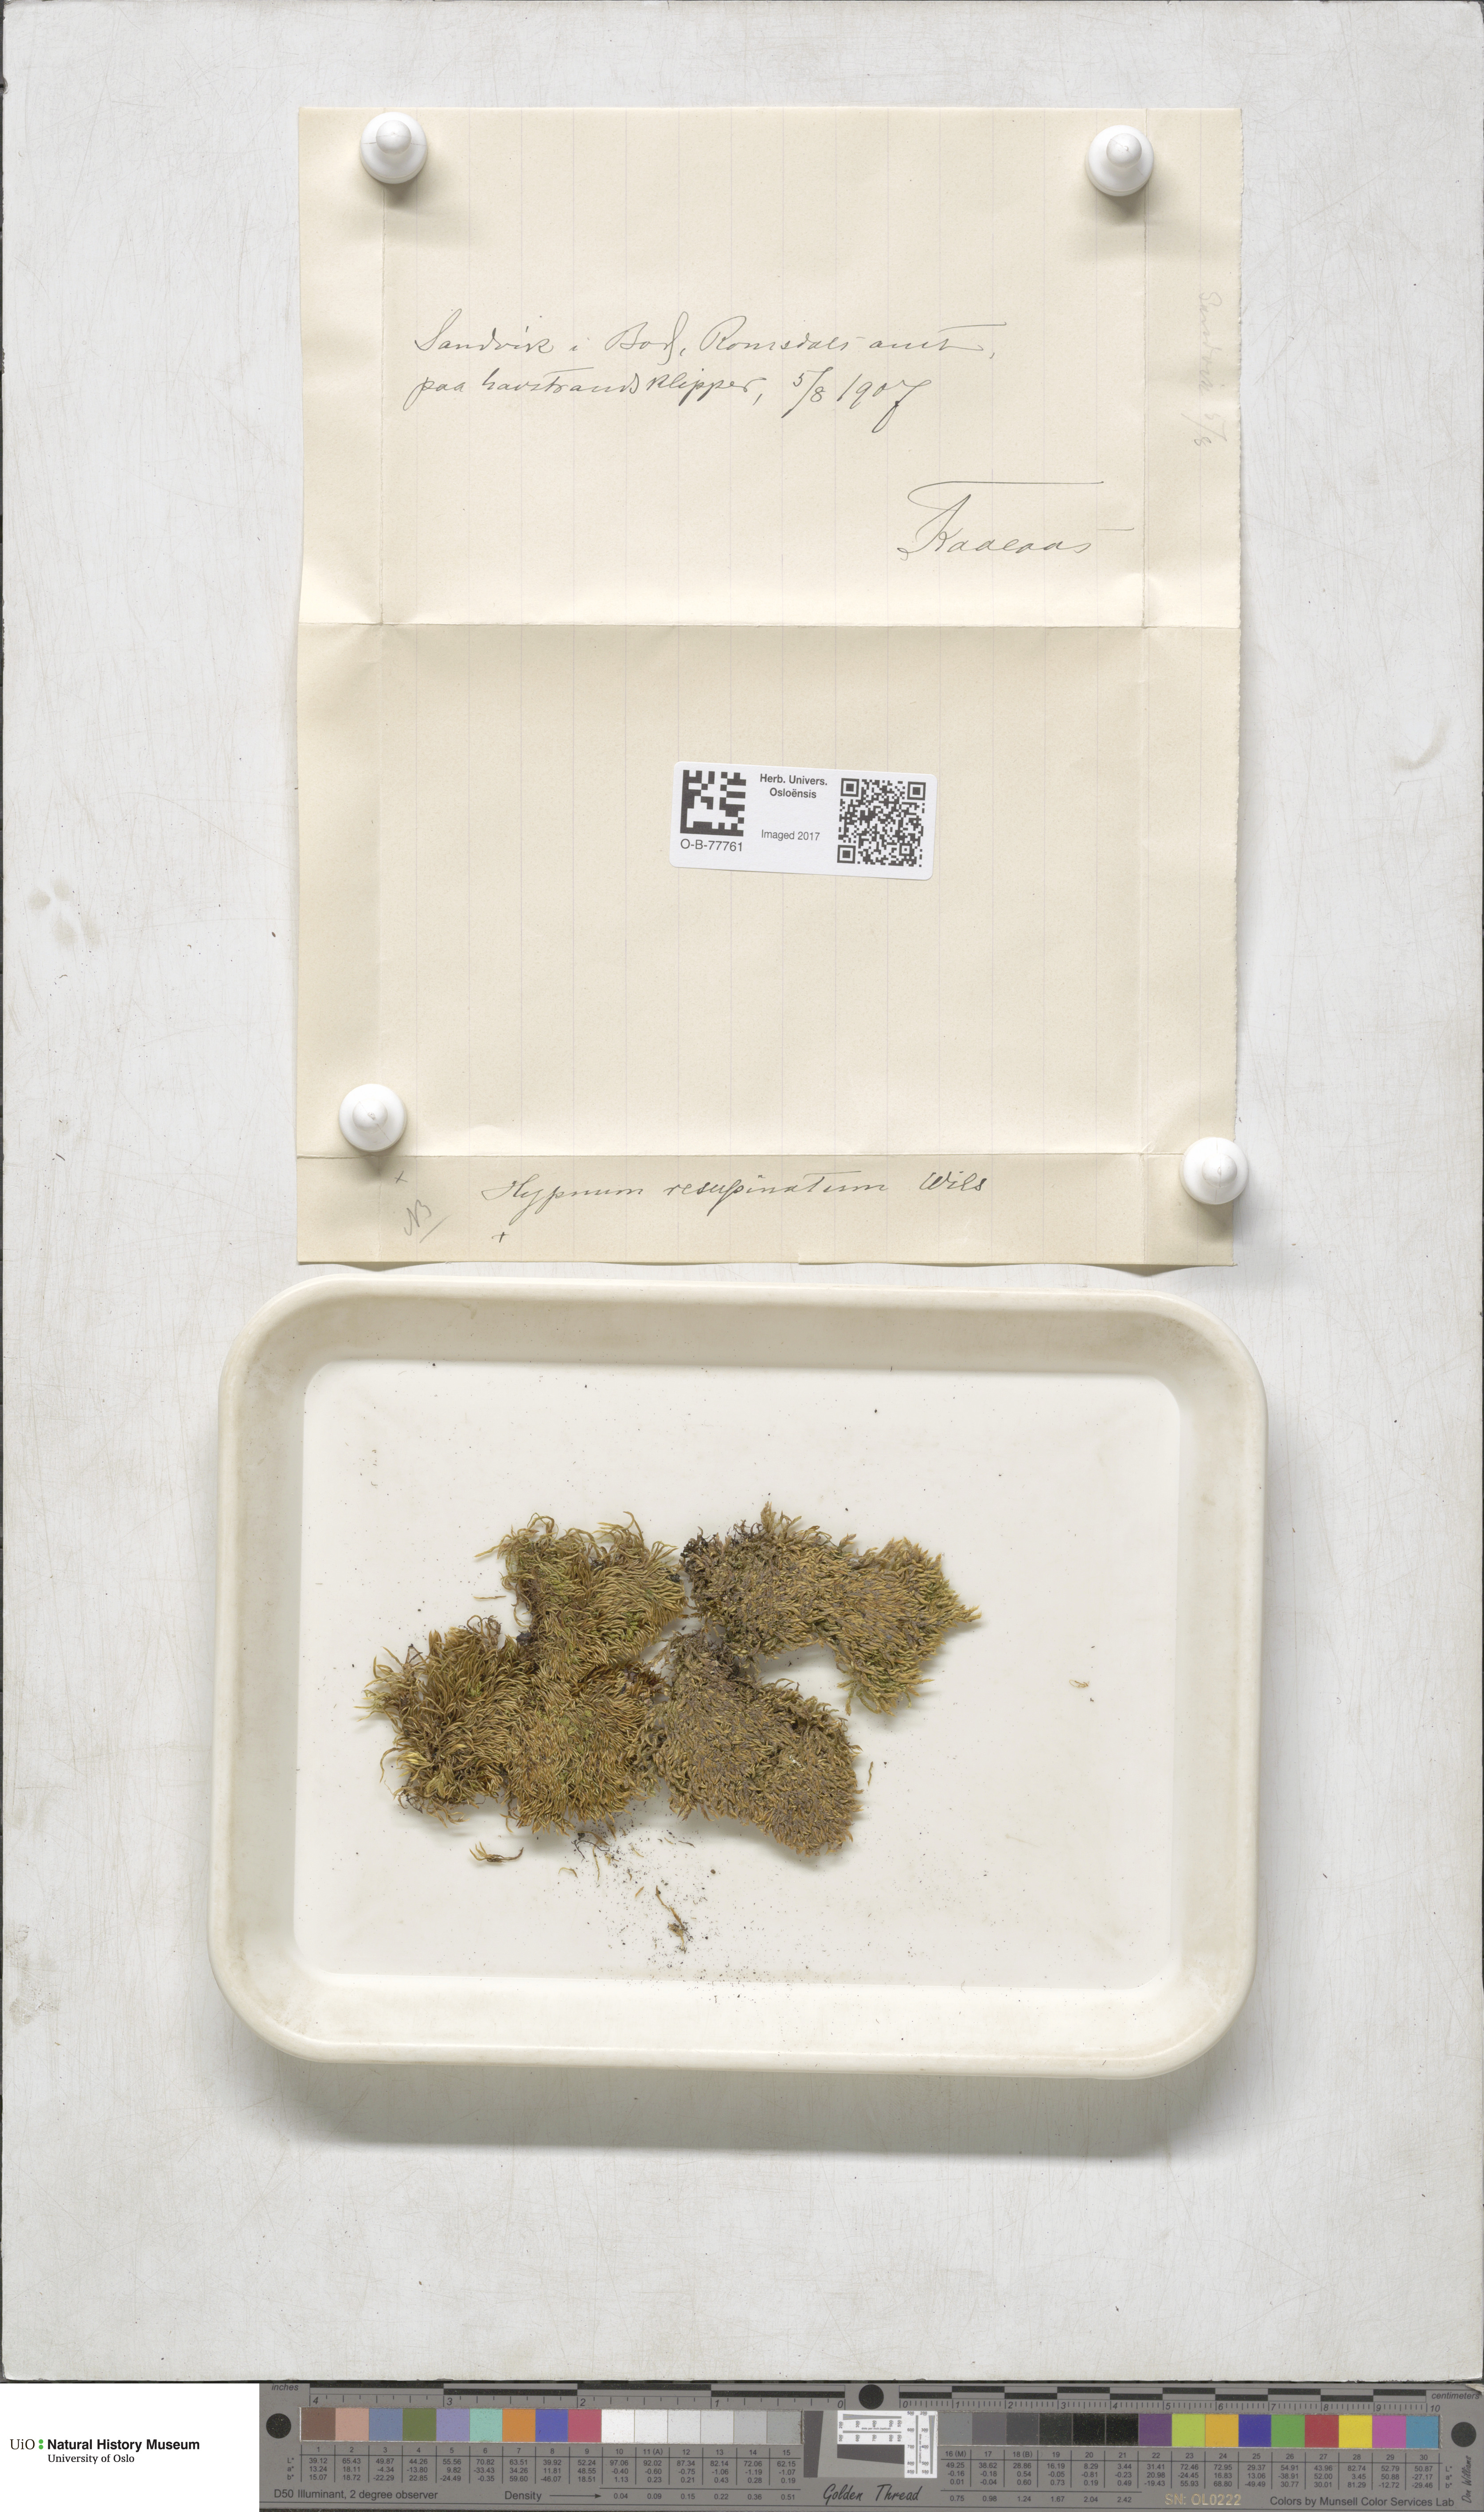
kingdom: Plantae
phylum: Bryophyta
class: Bryopsida
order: Hypnales
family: Hypnaceae
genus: Hypnum
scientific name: Hypnum resupinatum
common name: Supine plait-moss
